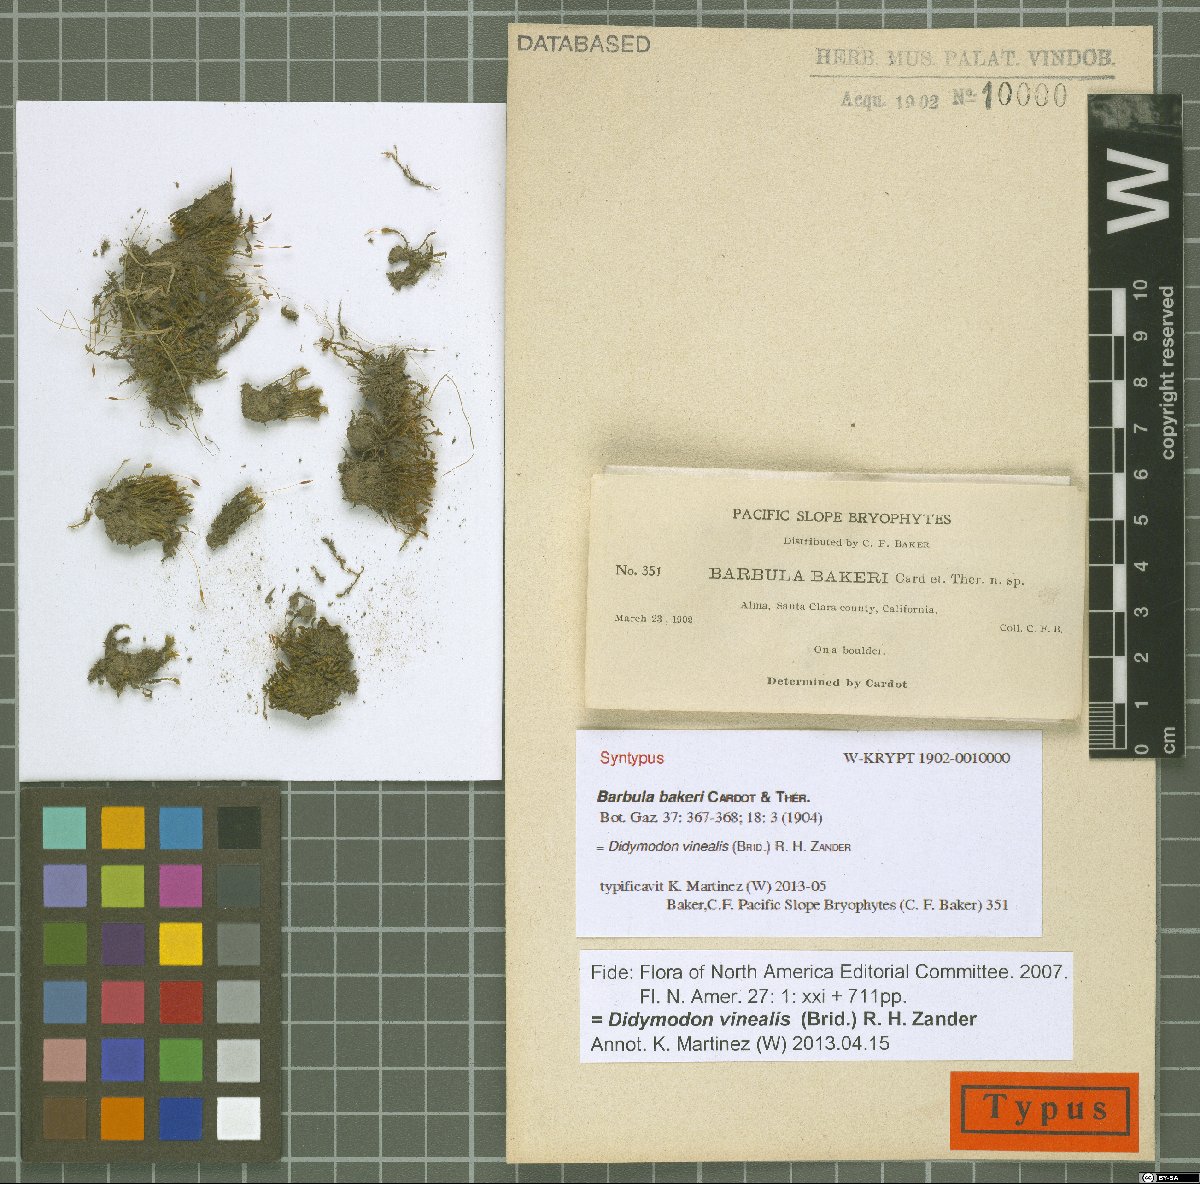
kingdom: Plantae
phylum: Bryophyta
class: Bryopsida
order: Pottiales
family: Pottiaceae
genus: Vinealobryum
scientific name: Vinealobryum vineale
